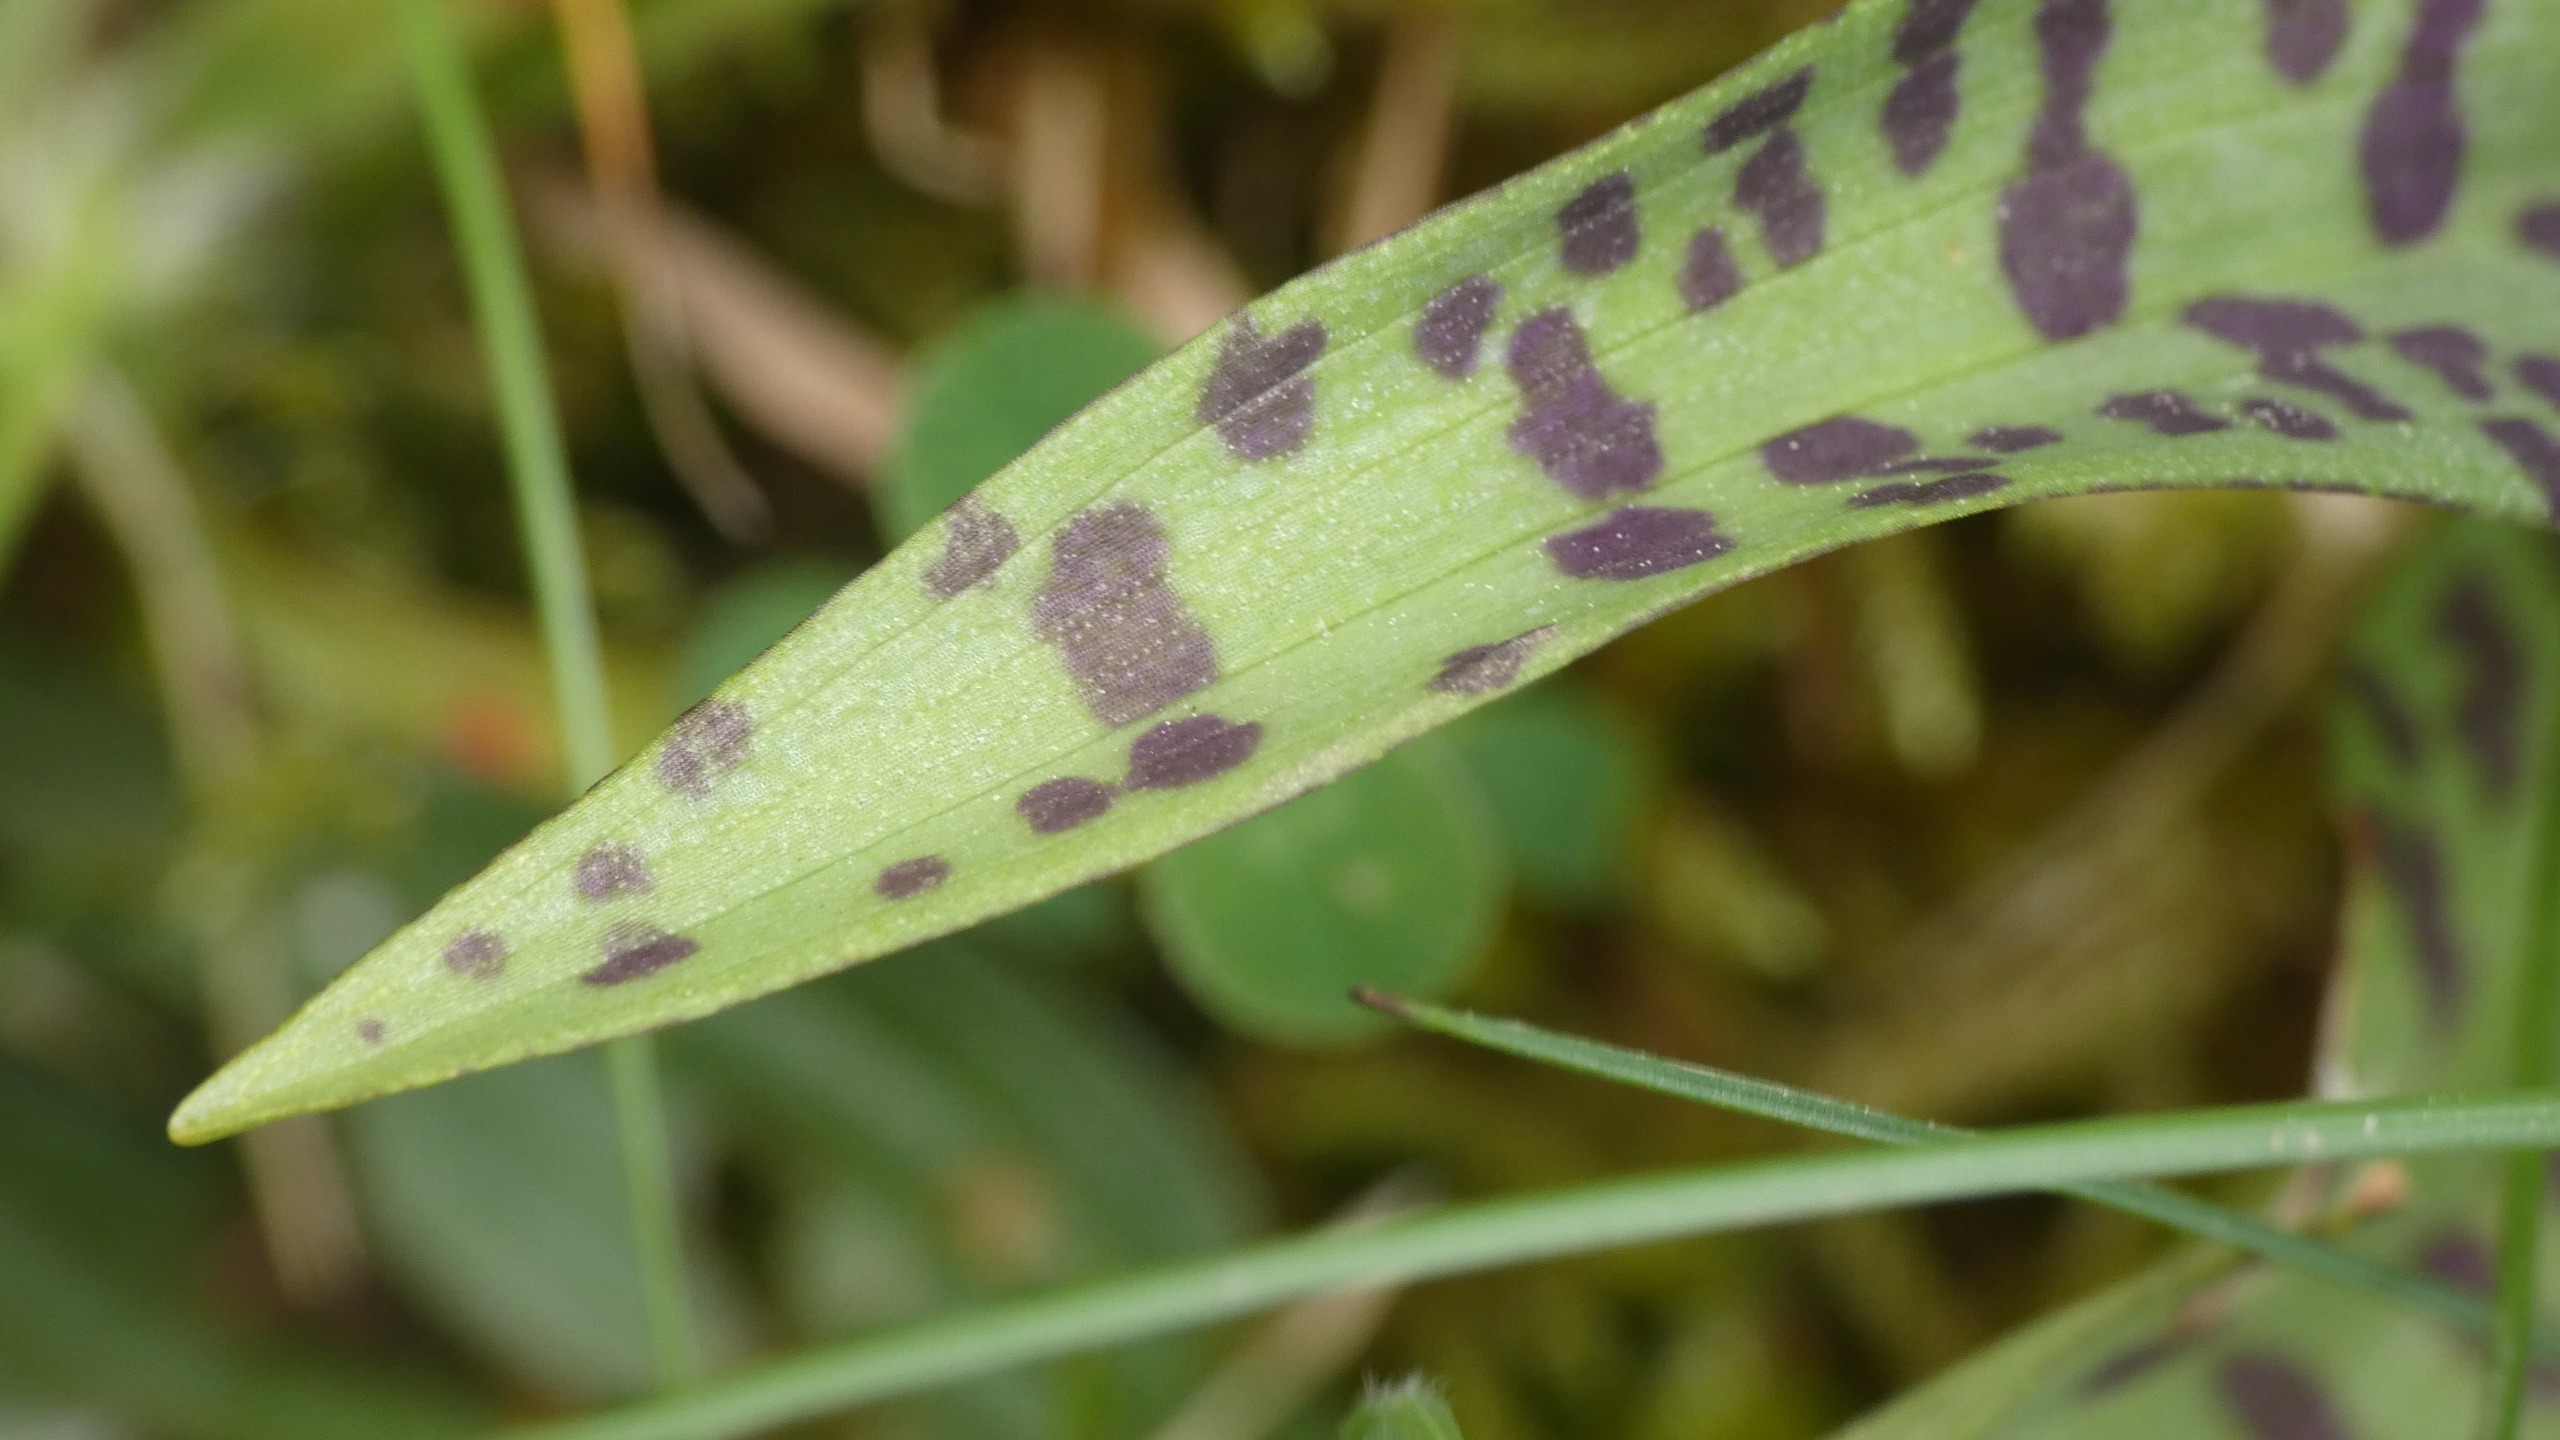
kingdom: Plantae
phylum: Tracheophyta
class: Liliopsida
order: Asparagales
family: Orchidaceae
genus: Dactylorhiza
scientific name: Dactylorhiza majalis
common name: Maj-gøgeurt
